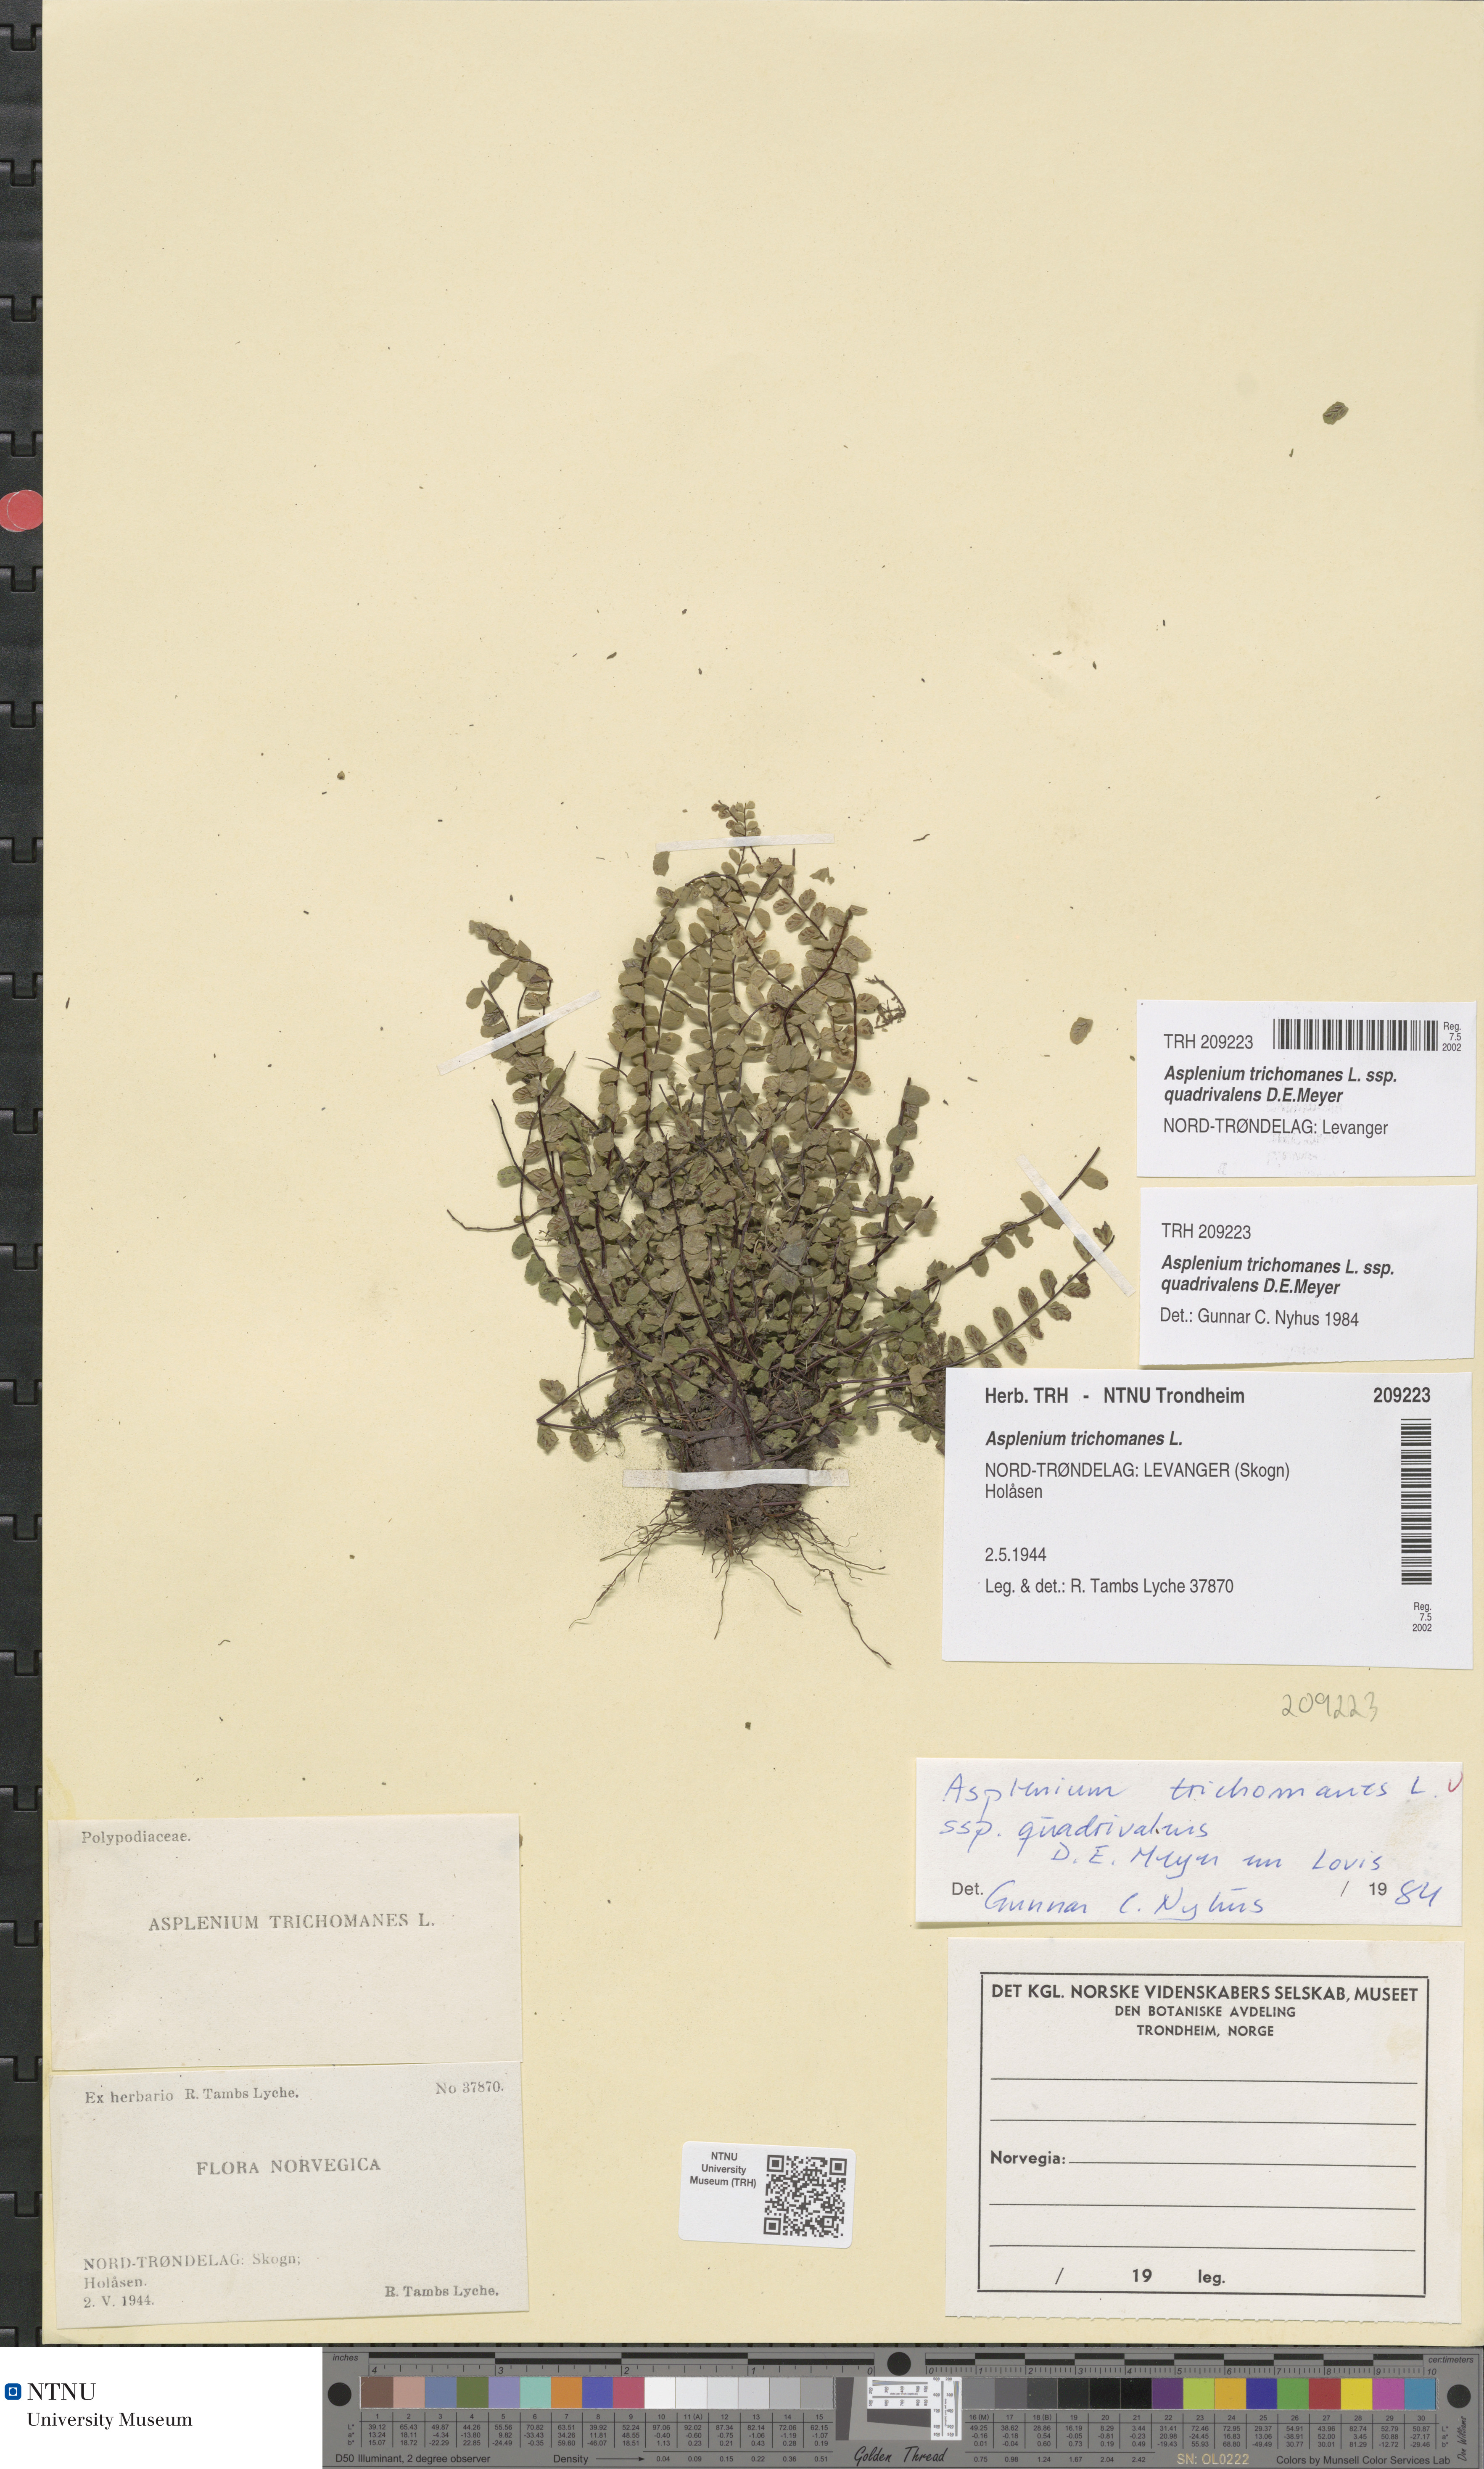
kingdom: Plantae
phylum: Tracheophyta
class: Polypodiopsida
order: Polypodiales
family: Aspleniaceae
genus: Asplenium
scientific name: Asplenium quadrivalens
